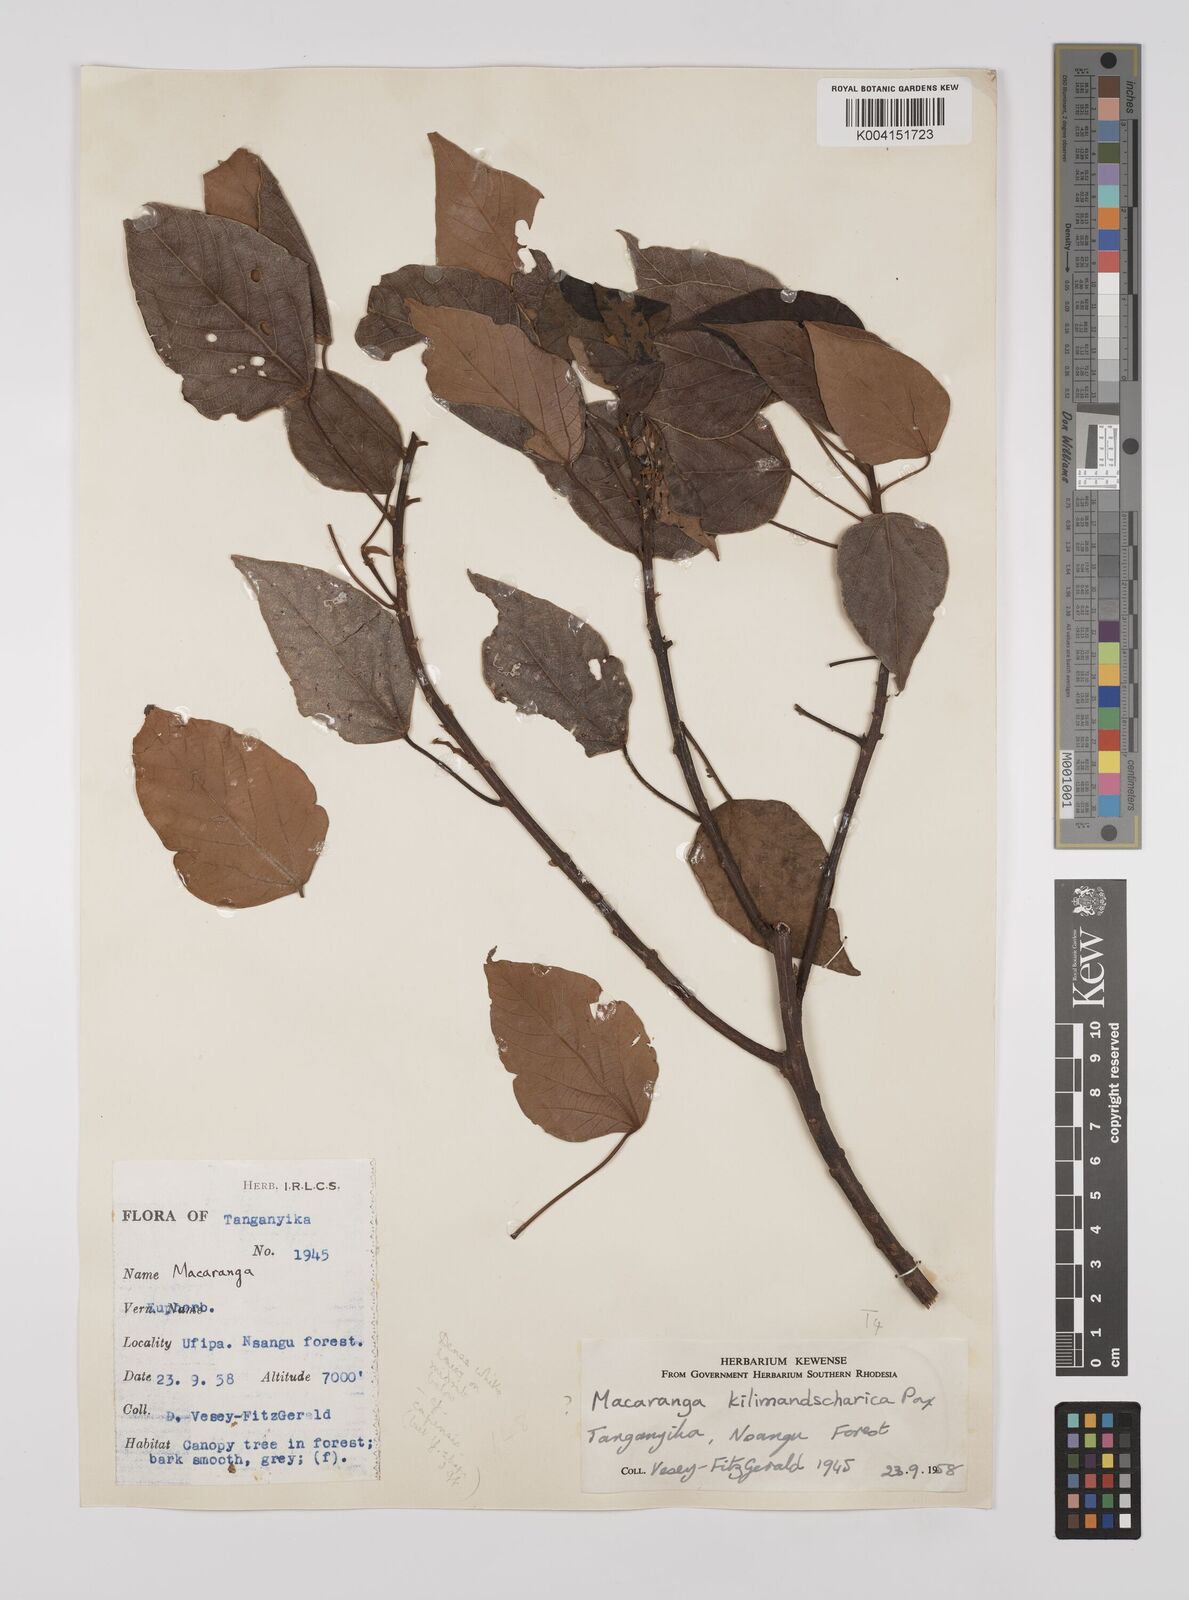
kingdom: Plantae
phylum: Tracheophyta
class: Magnoliopsida
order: Malpighiales
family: Euphorbiaceae
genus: Macaranga
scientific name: Macaranga kilimandscharica
